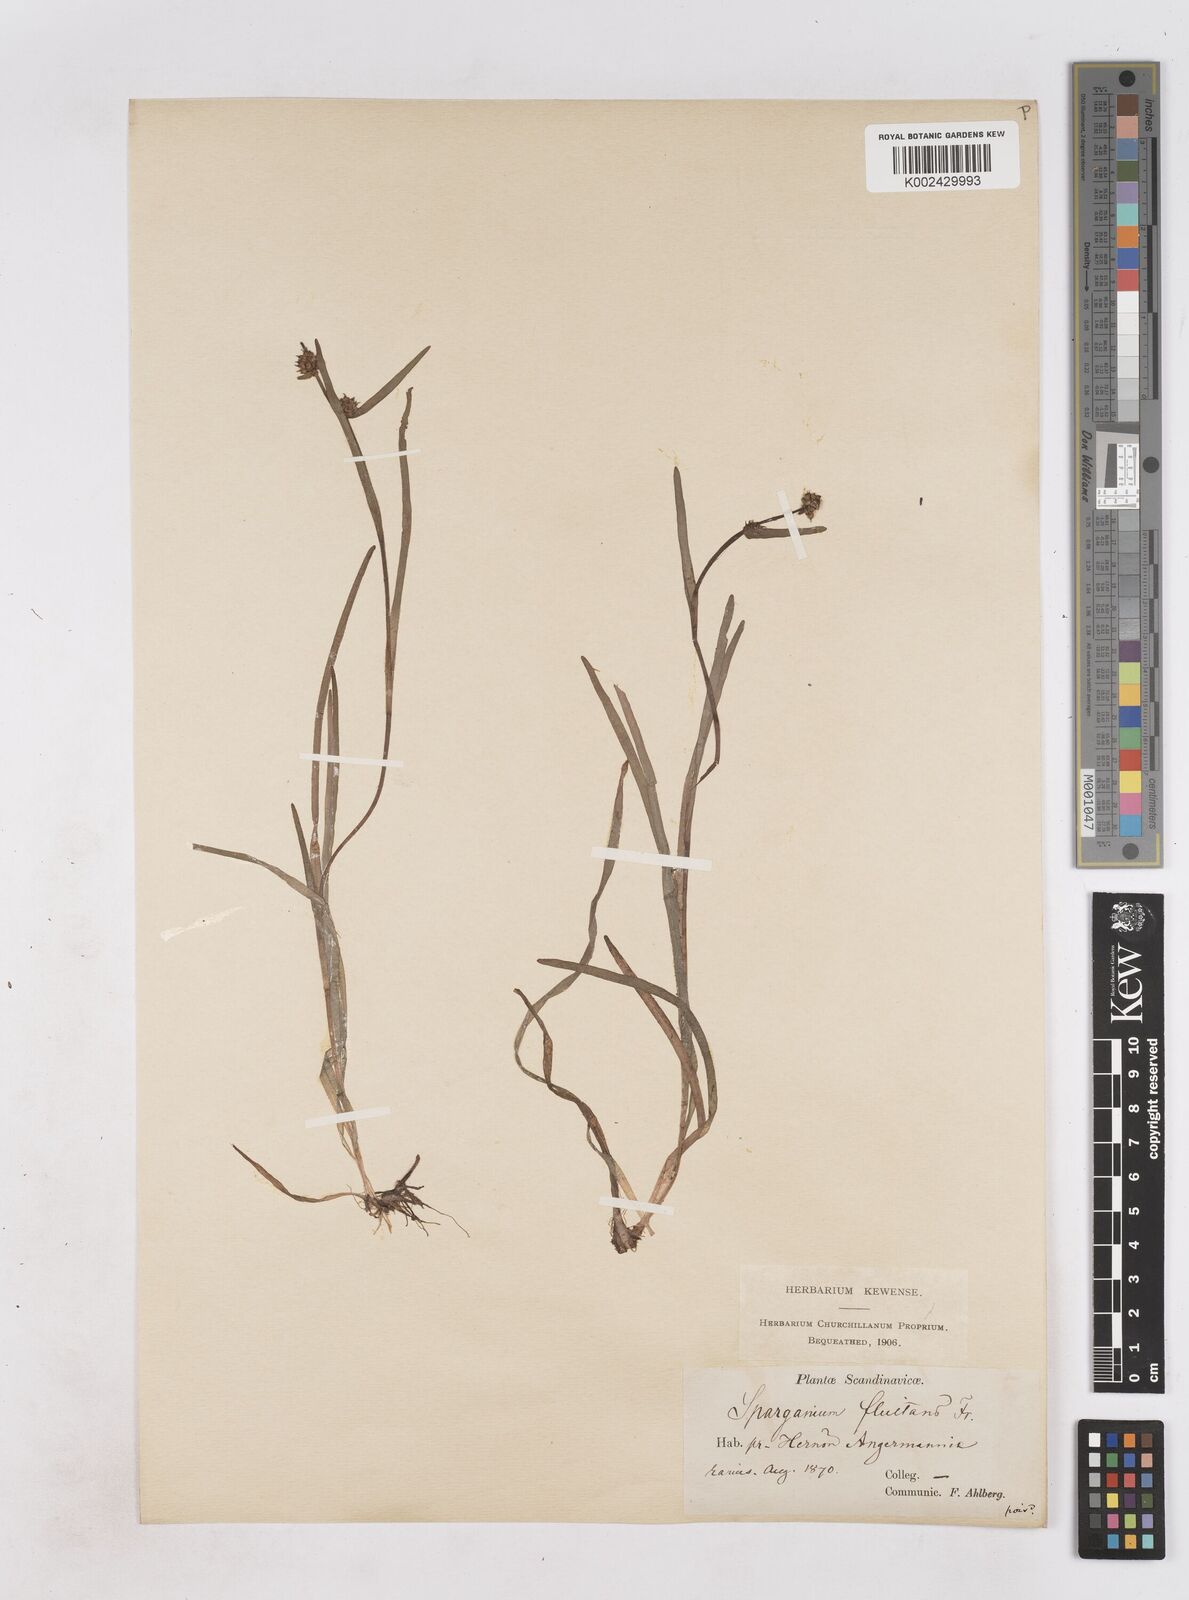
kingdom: Plantae
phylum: Tracheophyta
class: Liliopsida
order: Poales
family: Typhaceae
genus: Sparganium
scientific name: Sparganium angustifolium
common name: Floating bur-reed
